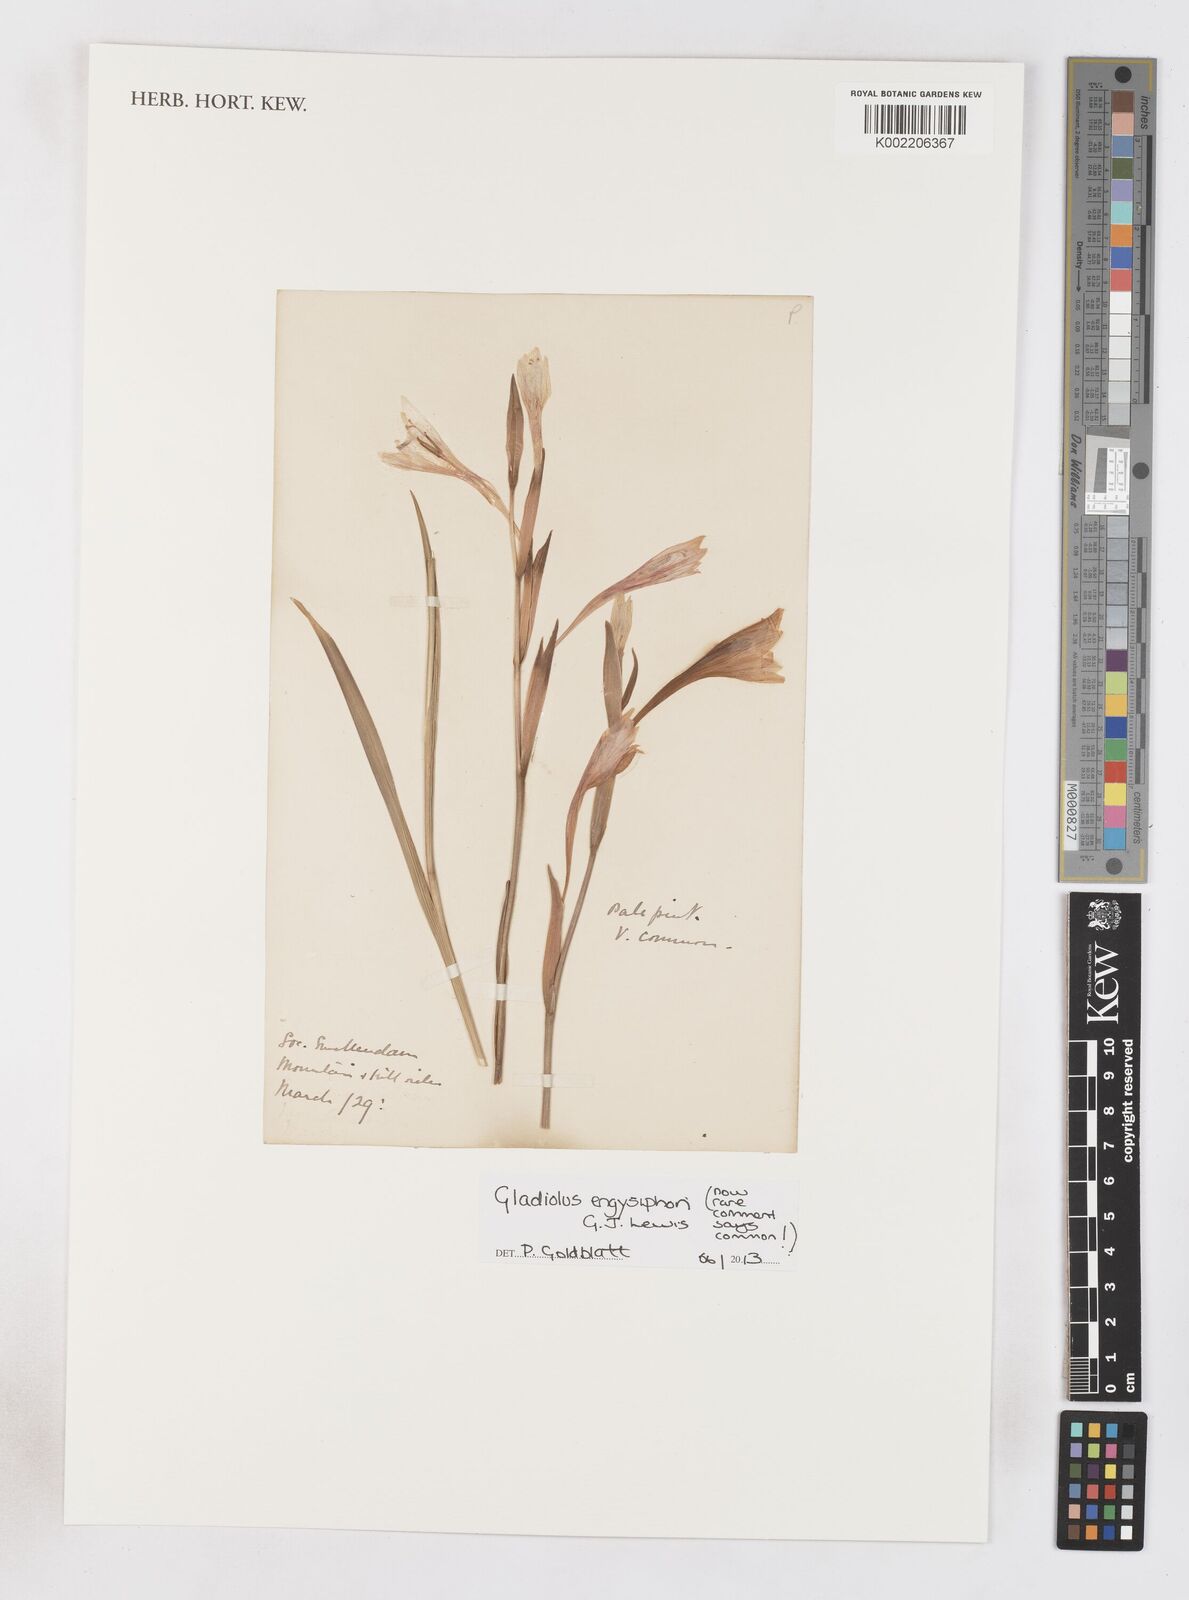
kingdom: Plantae
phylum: Tracheophyta
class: Liliopsida
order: Asparagales
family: Iridaceae
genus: Gladiolus
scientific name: Gladiolus engysiphon
